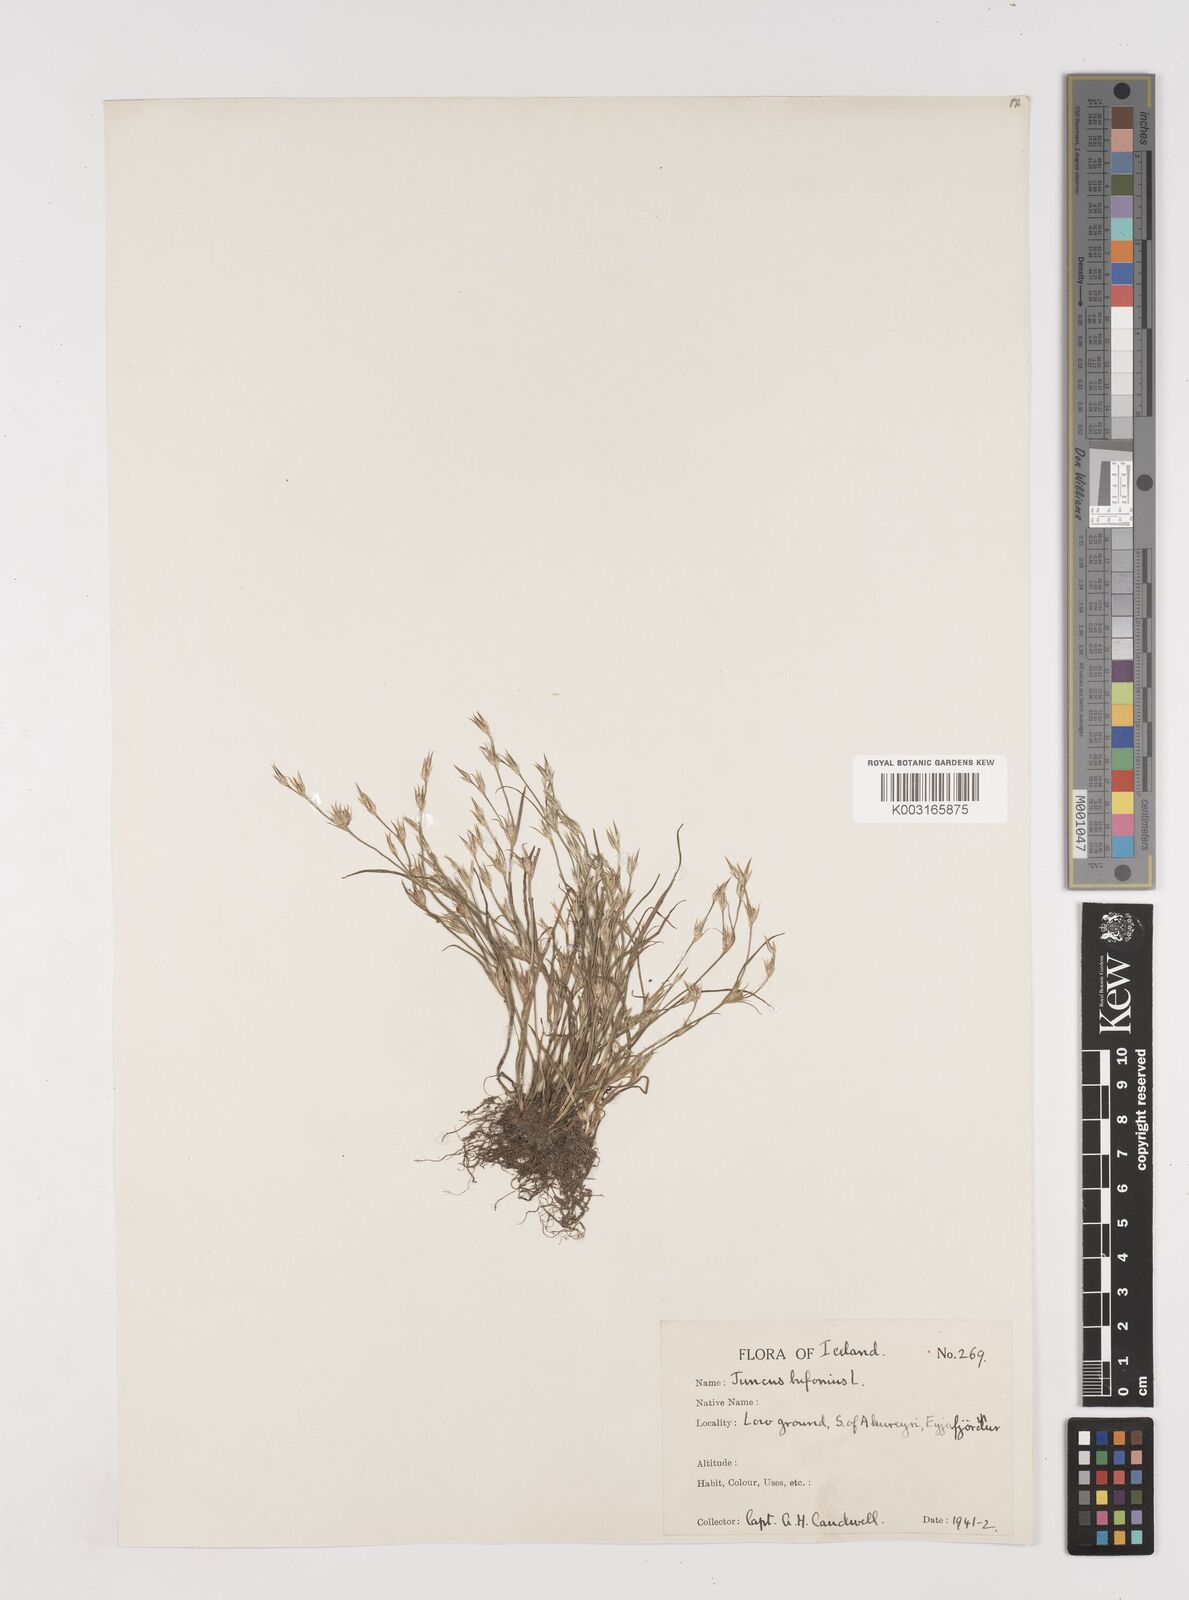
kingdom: Plantae
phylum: Tracheophyta
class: Liliopsida
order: Poales
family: Juncaceae
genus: Juncus
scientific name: Juncus bufonius
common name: Toad rush
